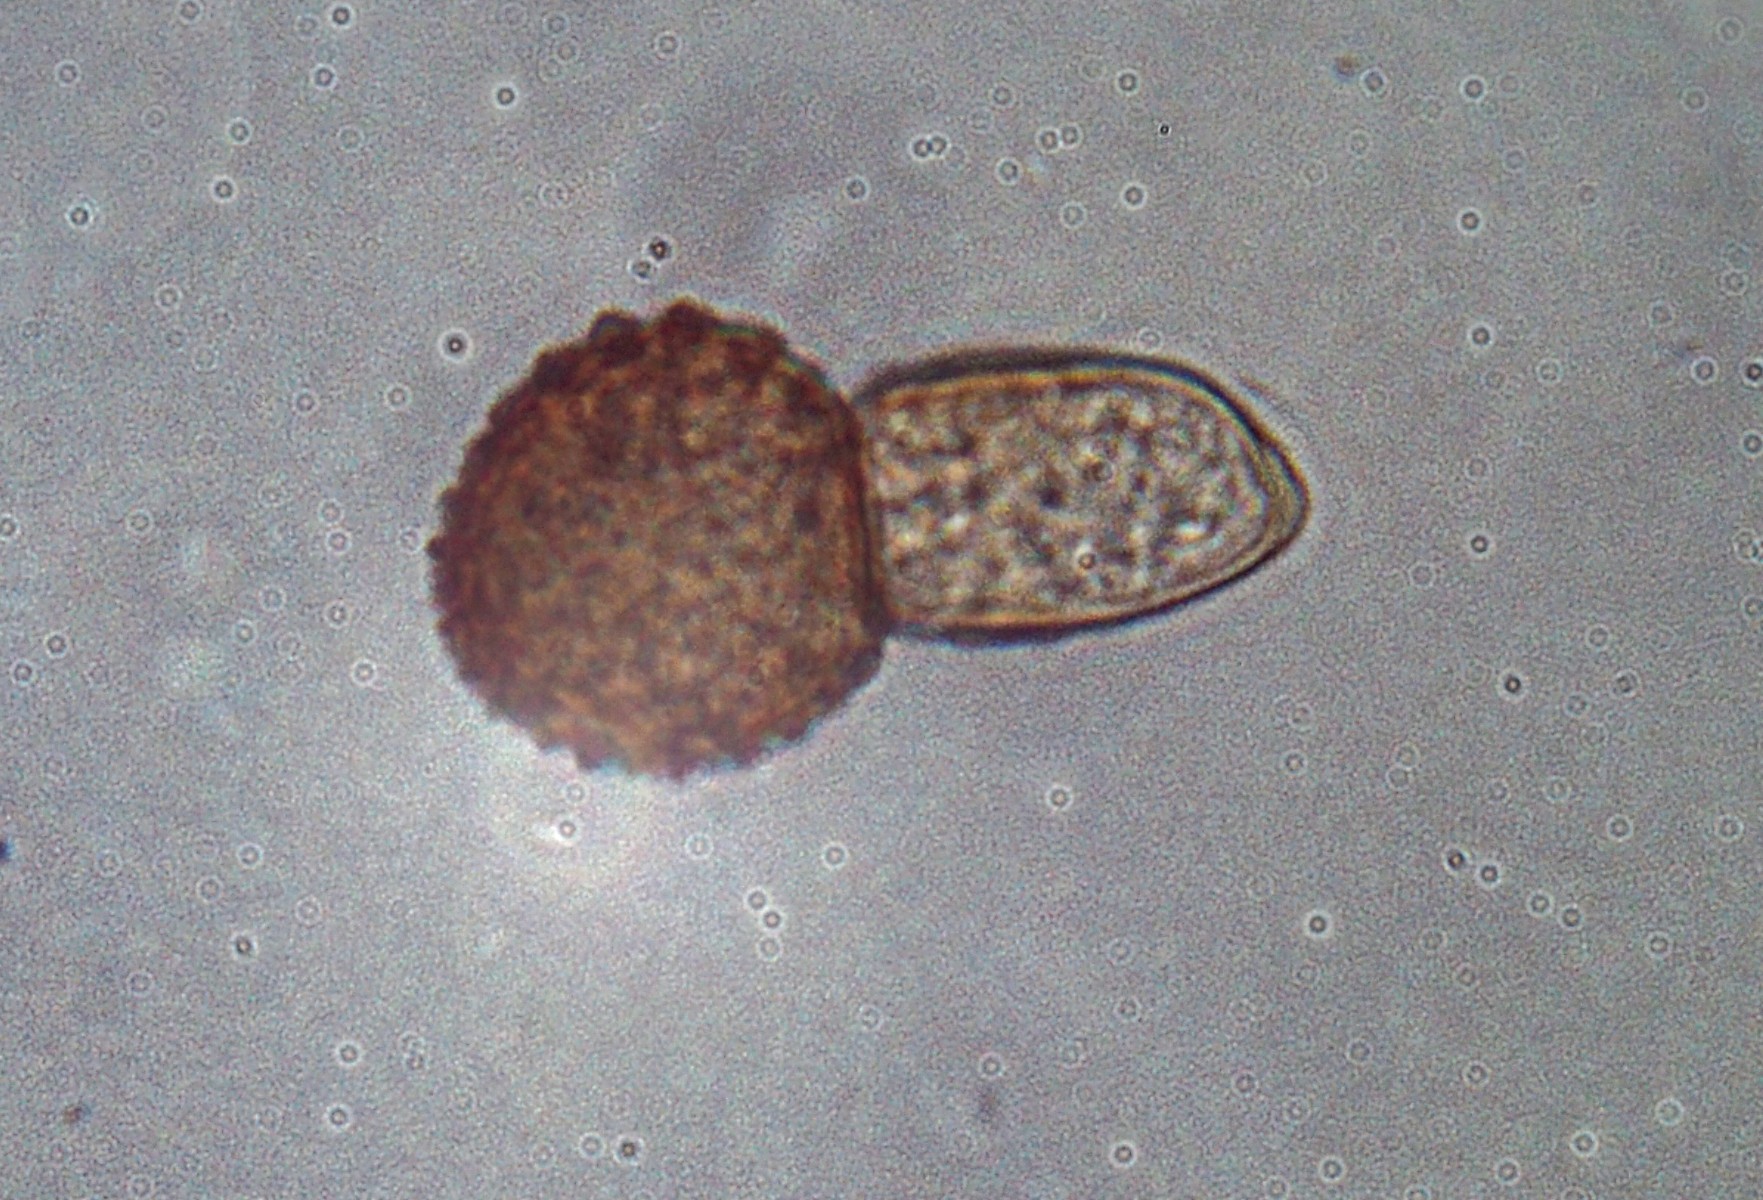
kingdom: Fungi
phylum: Basidiomycota
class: Pucciniomycetes
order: Pucciniales
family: Tranzscheliaceae
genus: Tranzschelia
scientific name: Tranzschelia discolor
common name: Plum rust
